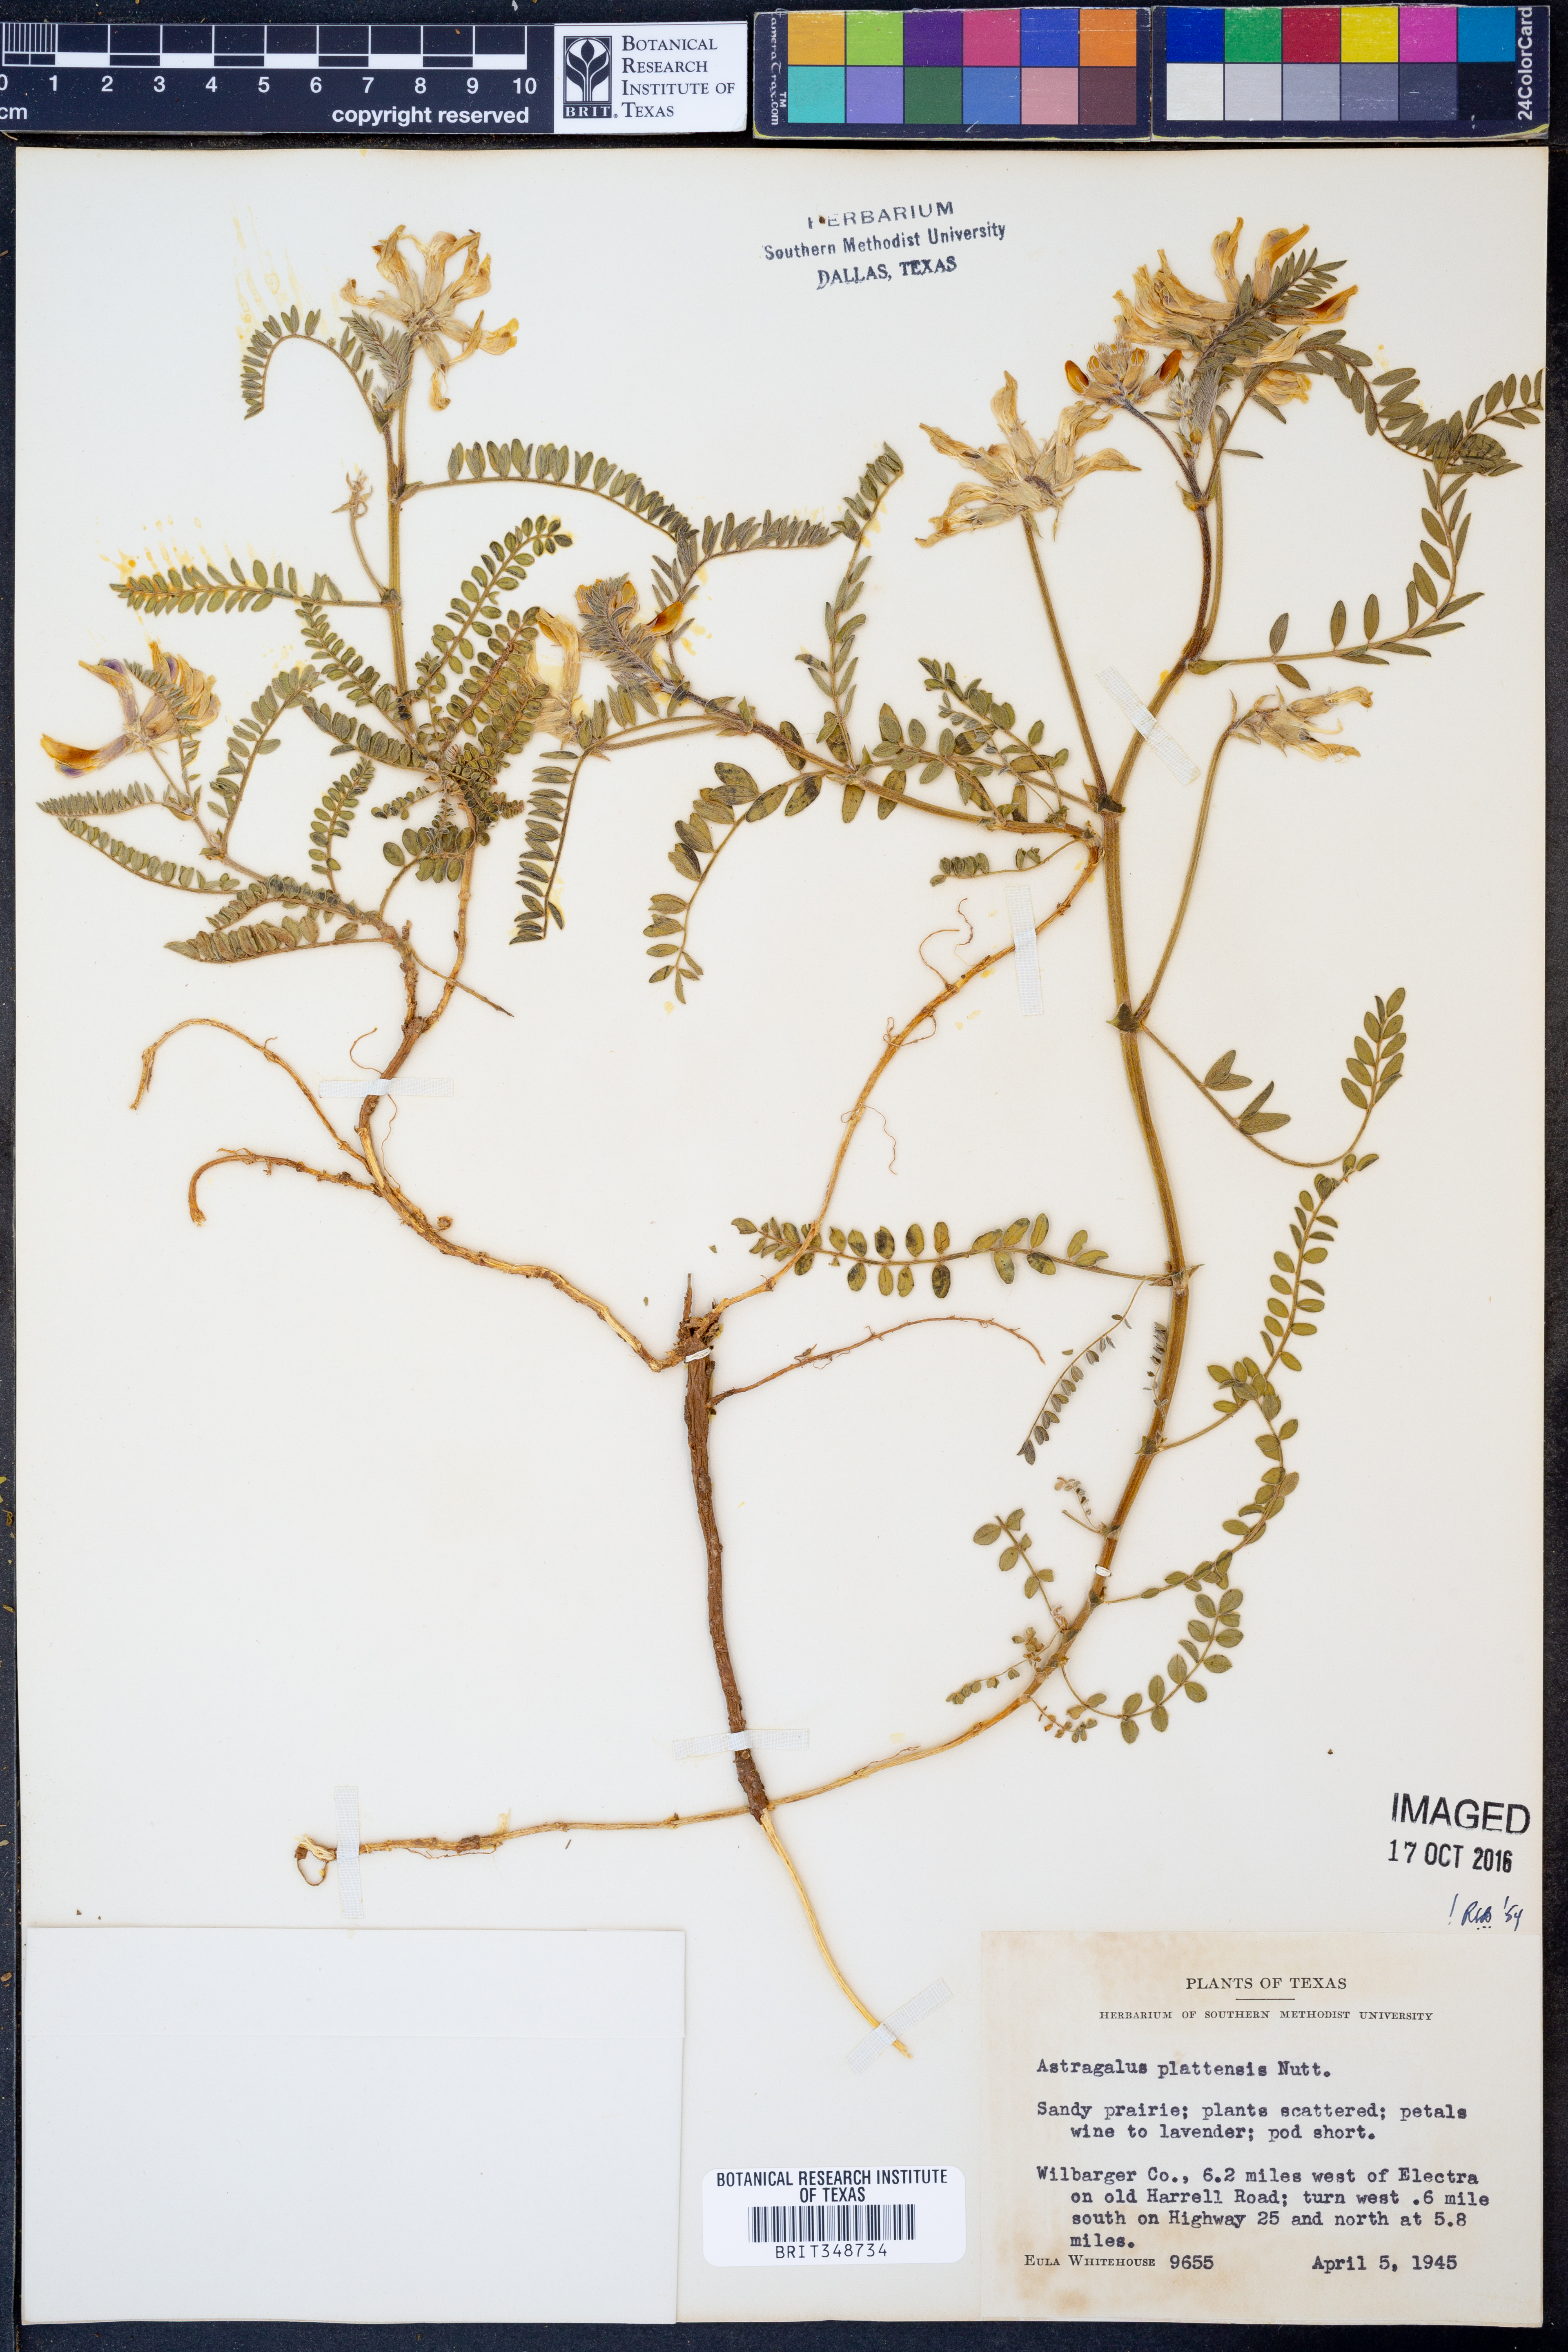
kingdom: Plantae
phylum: Tracheophyta
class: Magnoliopsida
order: Fabales
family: Fabaceae
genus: Astragalus
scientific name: Astragalus plattensis
